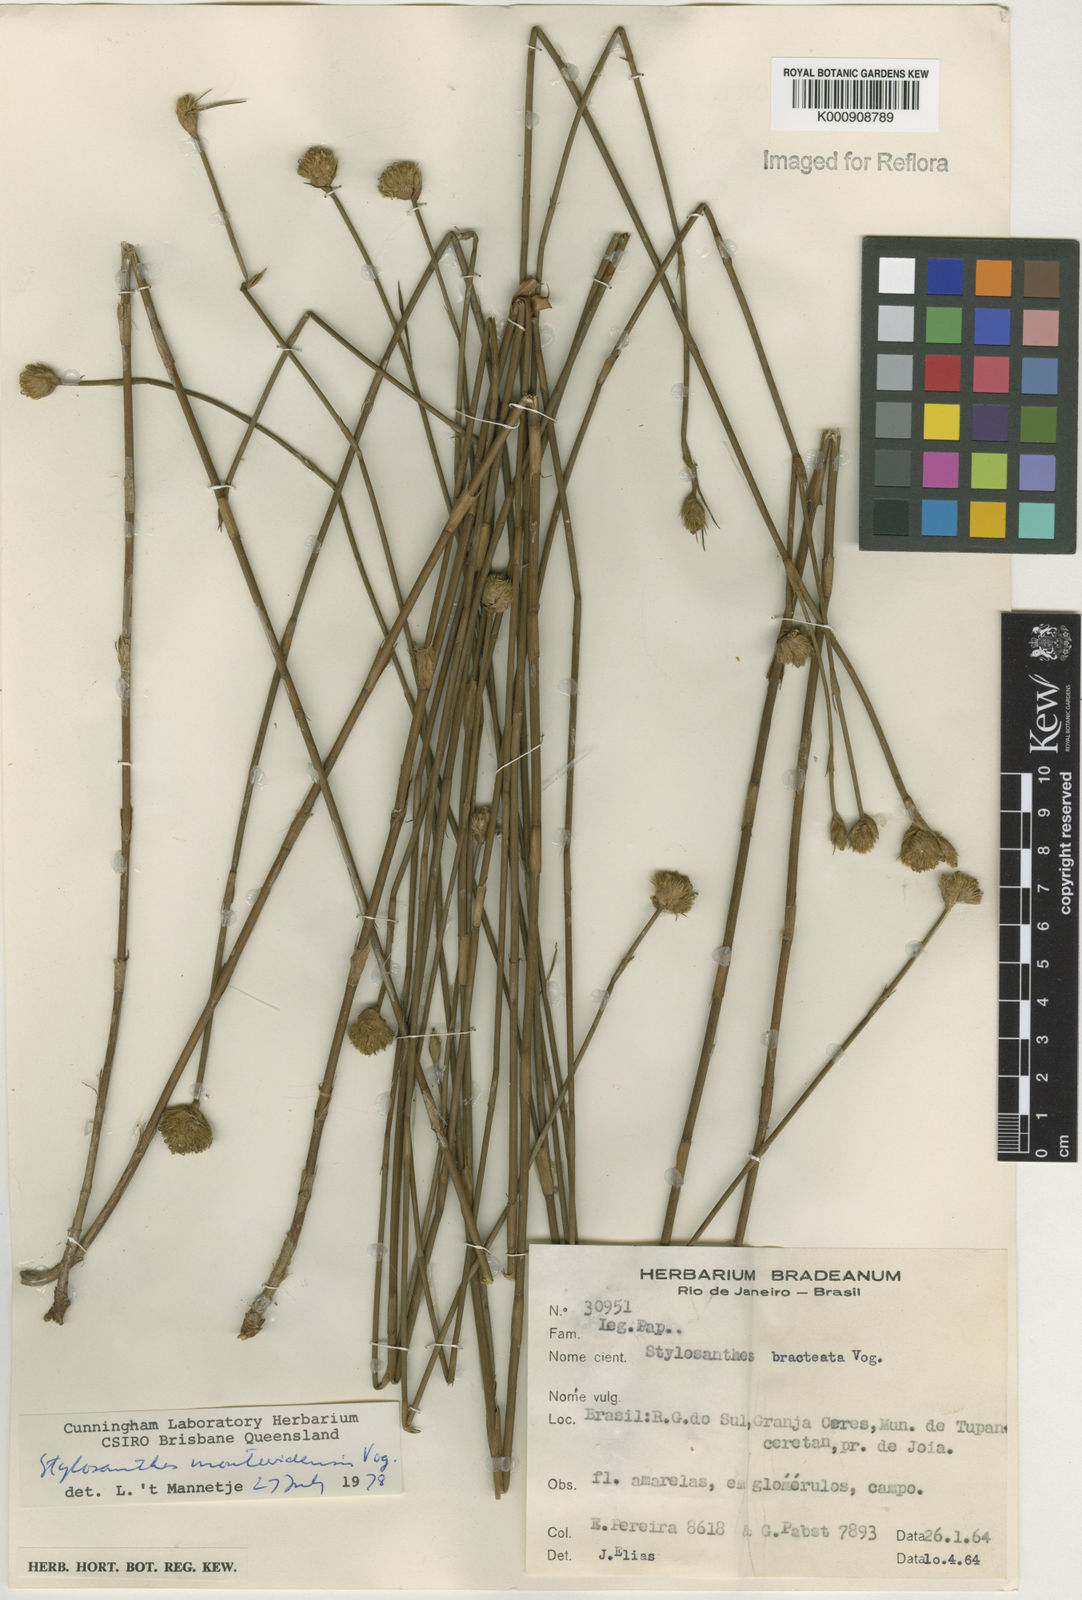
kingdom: Plantae
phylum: Tracheophyta
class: Magnoliopsida
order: Fabales
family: Fabaceae
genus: Stylosanthes
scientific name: Stylosanthes montevidensis
